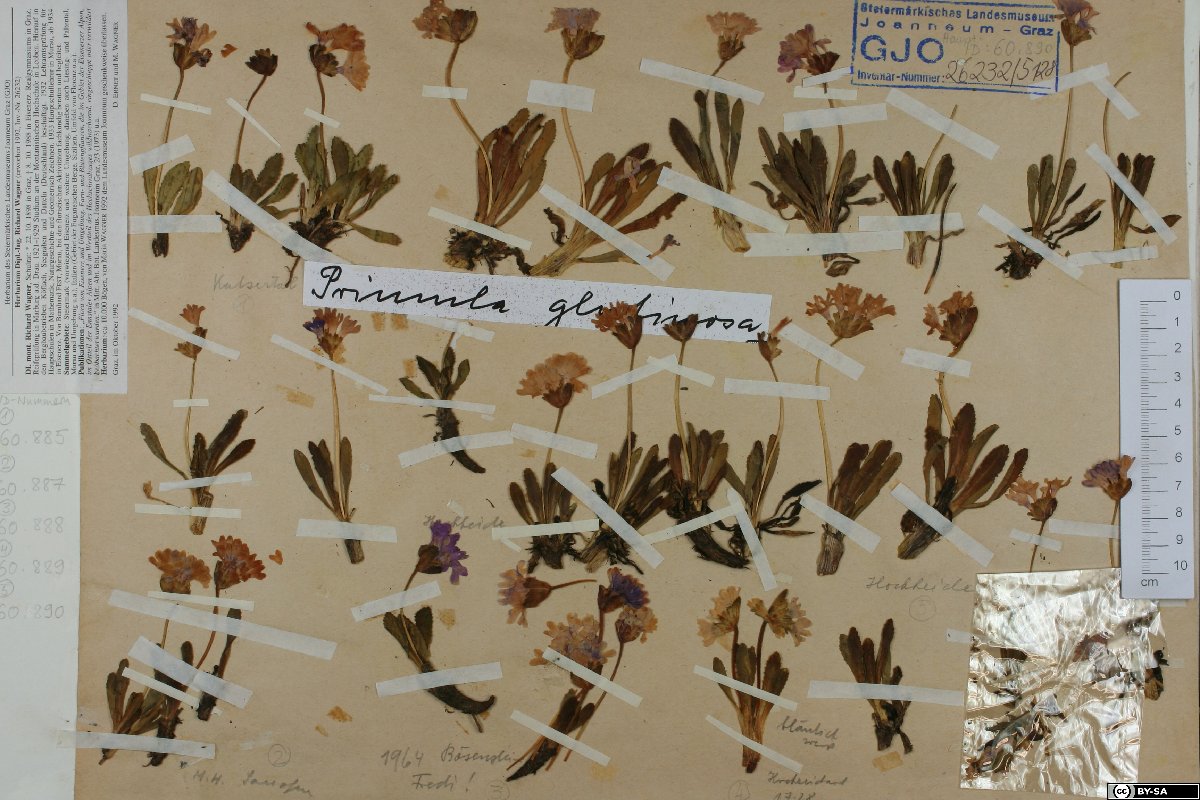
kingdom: Plantae
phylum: Tracheophyta
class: Magnoliopsida
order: Ericales
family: Primulaceae
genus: Primula
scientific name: Primula glutinosa
